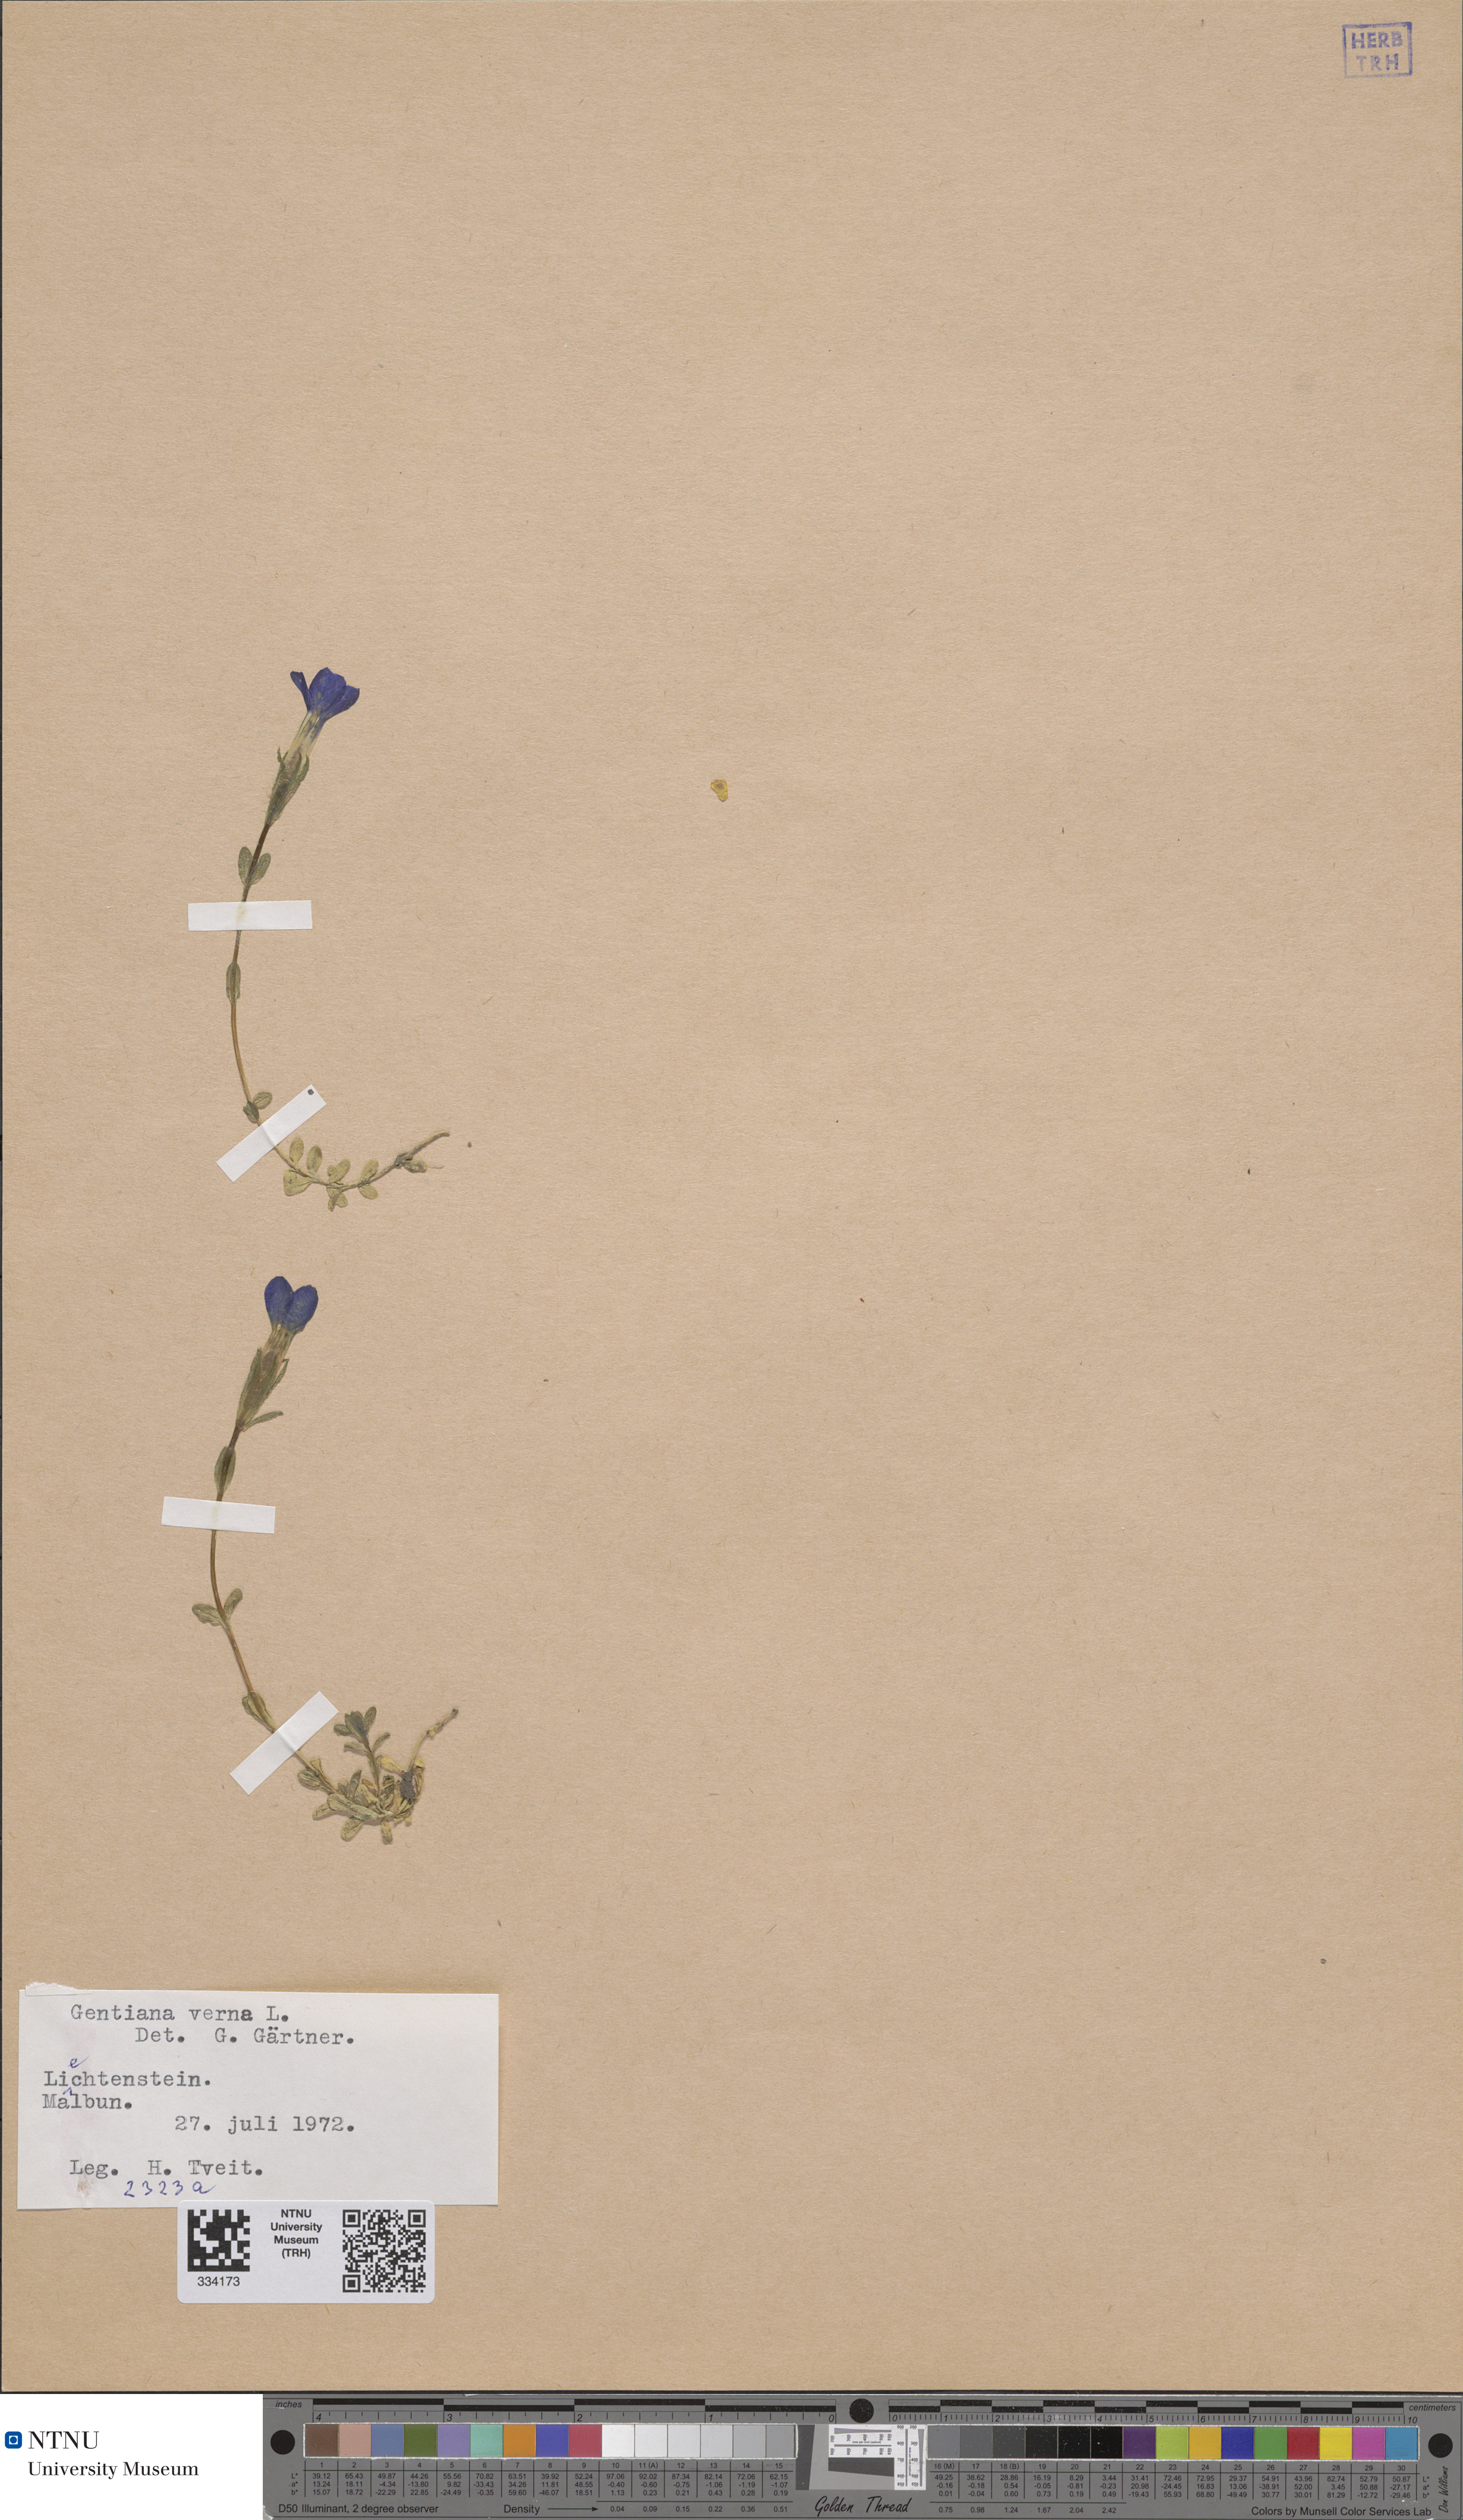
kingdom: Plantae
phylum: Tracheophyta
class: Magnoliopsida
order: Gentianales
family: Gentianaceae
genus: Gentiana
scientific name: Gentiana verna
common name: Spring gentian
